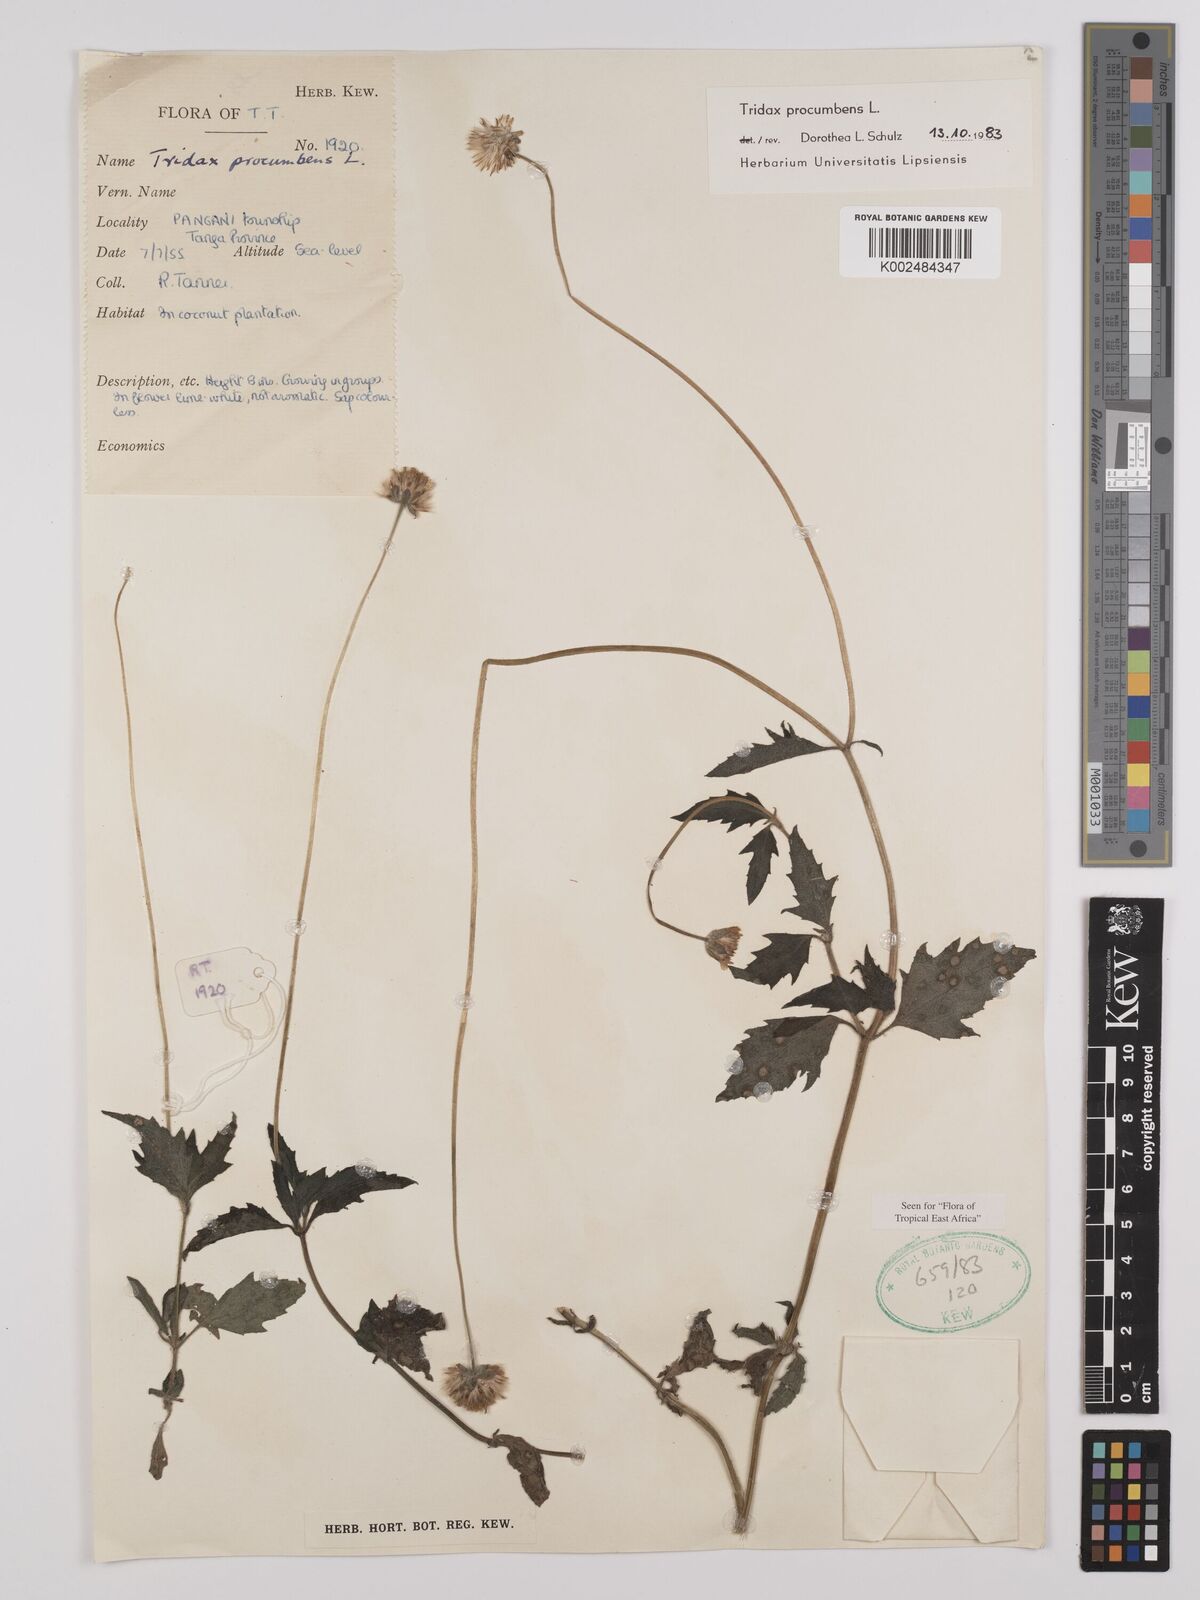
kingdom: Plantae
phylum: Tracheophyta
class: Magnoliopsida
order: Asterales
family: Asteraceae
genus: Tridax
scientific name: Tridax procumbens
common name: Coatbuttons
